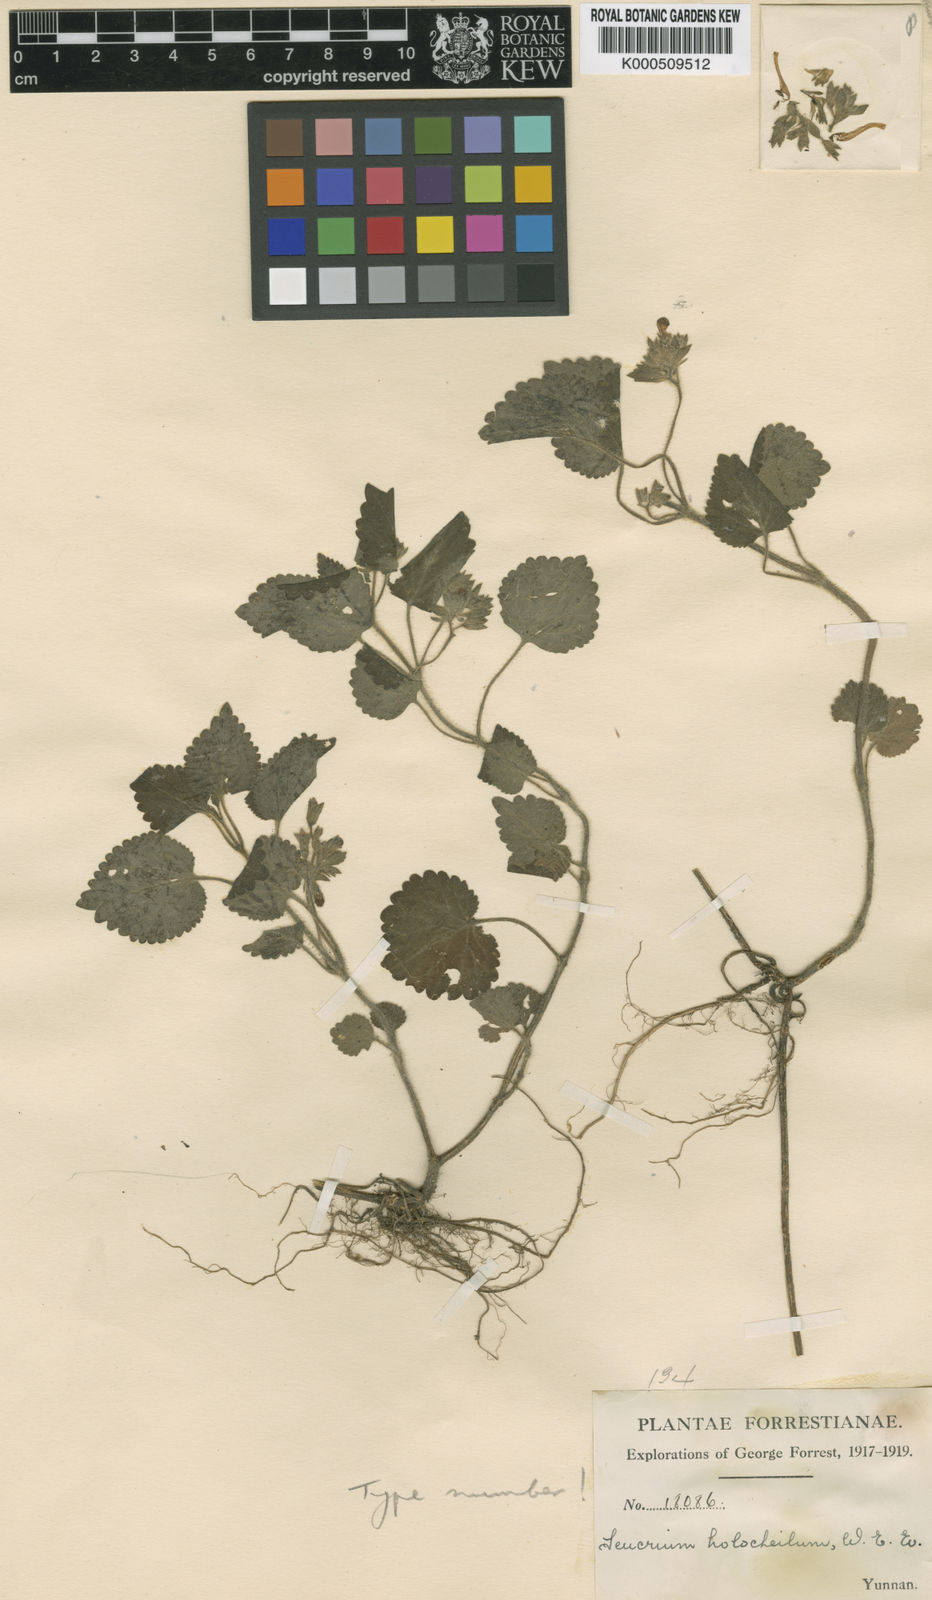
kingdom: Plantae
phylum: Tracheophyta
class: Magnoliopsida
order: Lamiales
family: Lamiaceae
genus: Holocheila
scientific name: Holocheila longipedunculata
